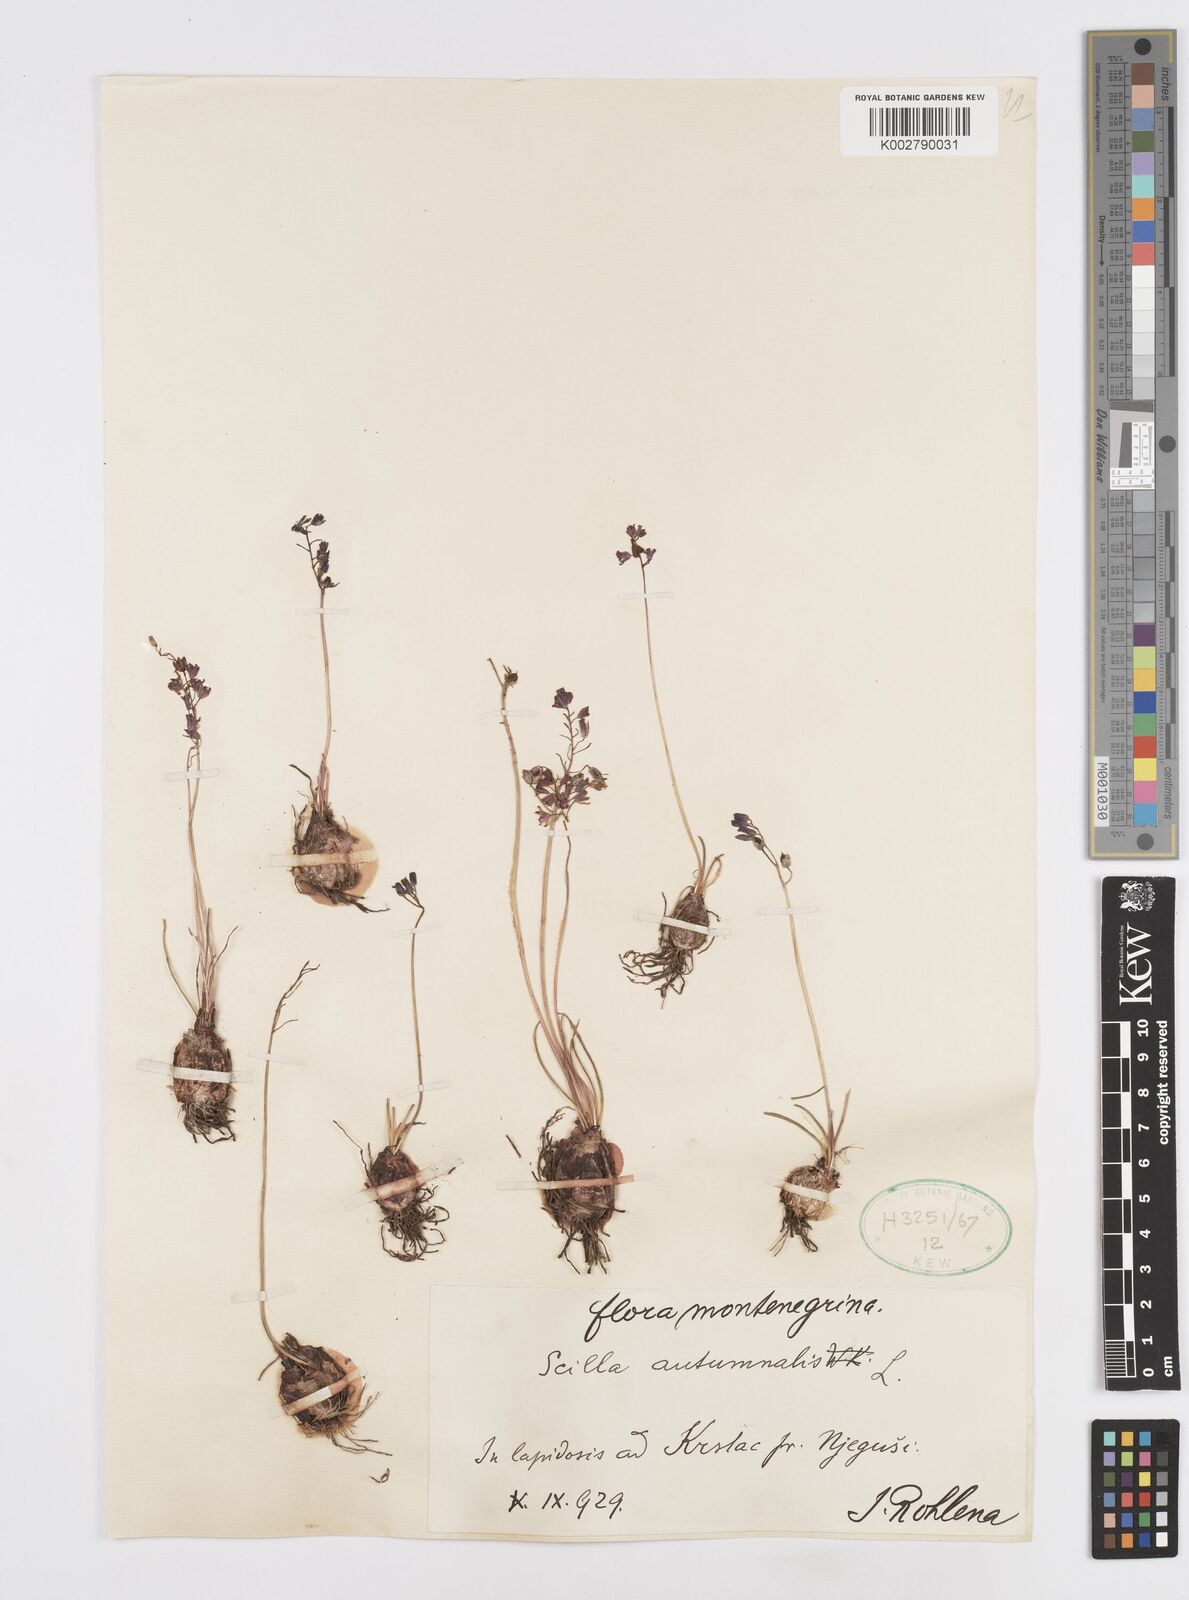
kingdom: Plantae
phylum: Tracheophyta
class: Liliopsida
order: Asparagales
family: Asparagaceae
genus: Prospero
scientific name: Prospero autumnale
